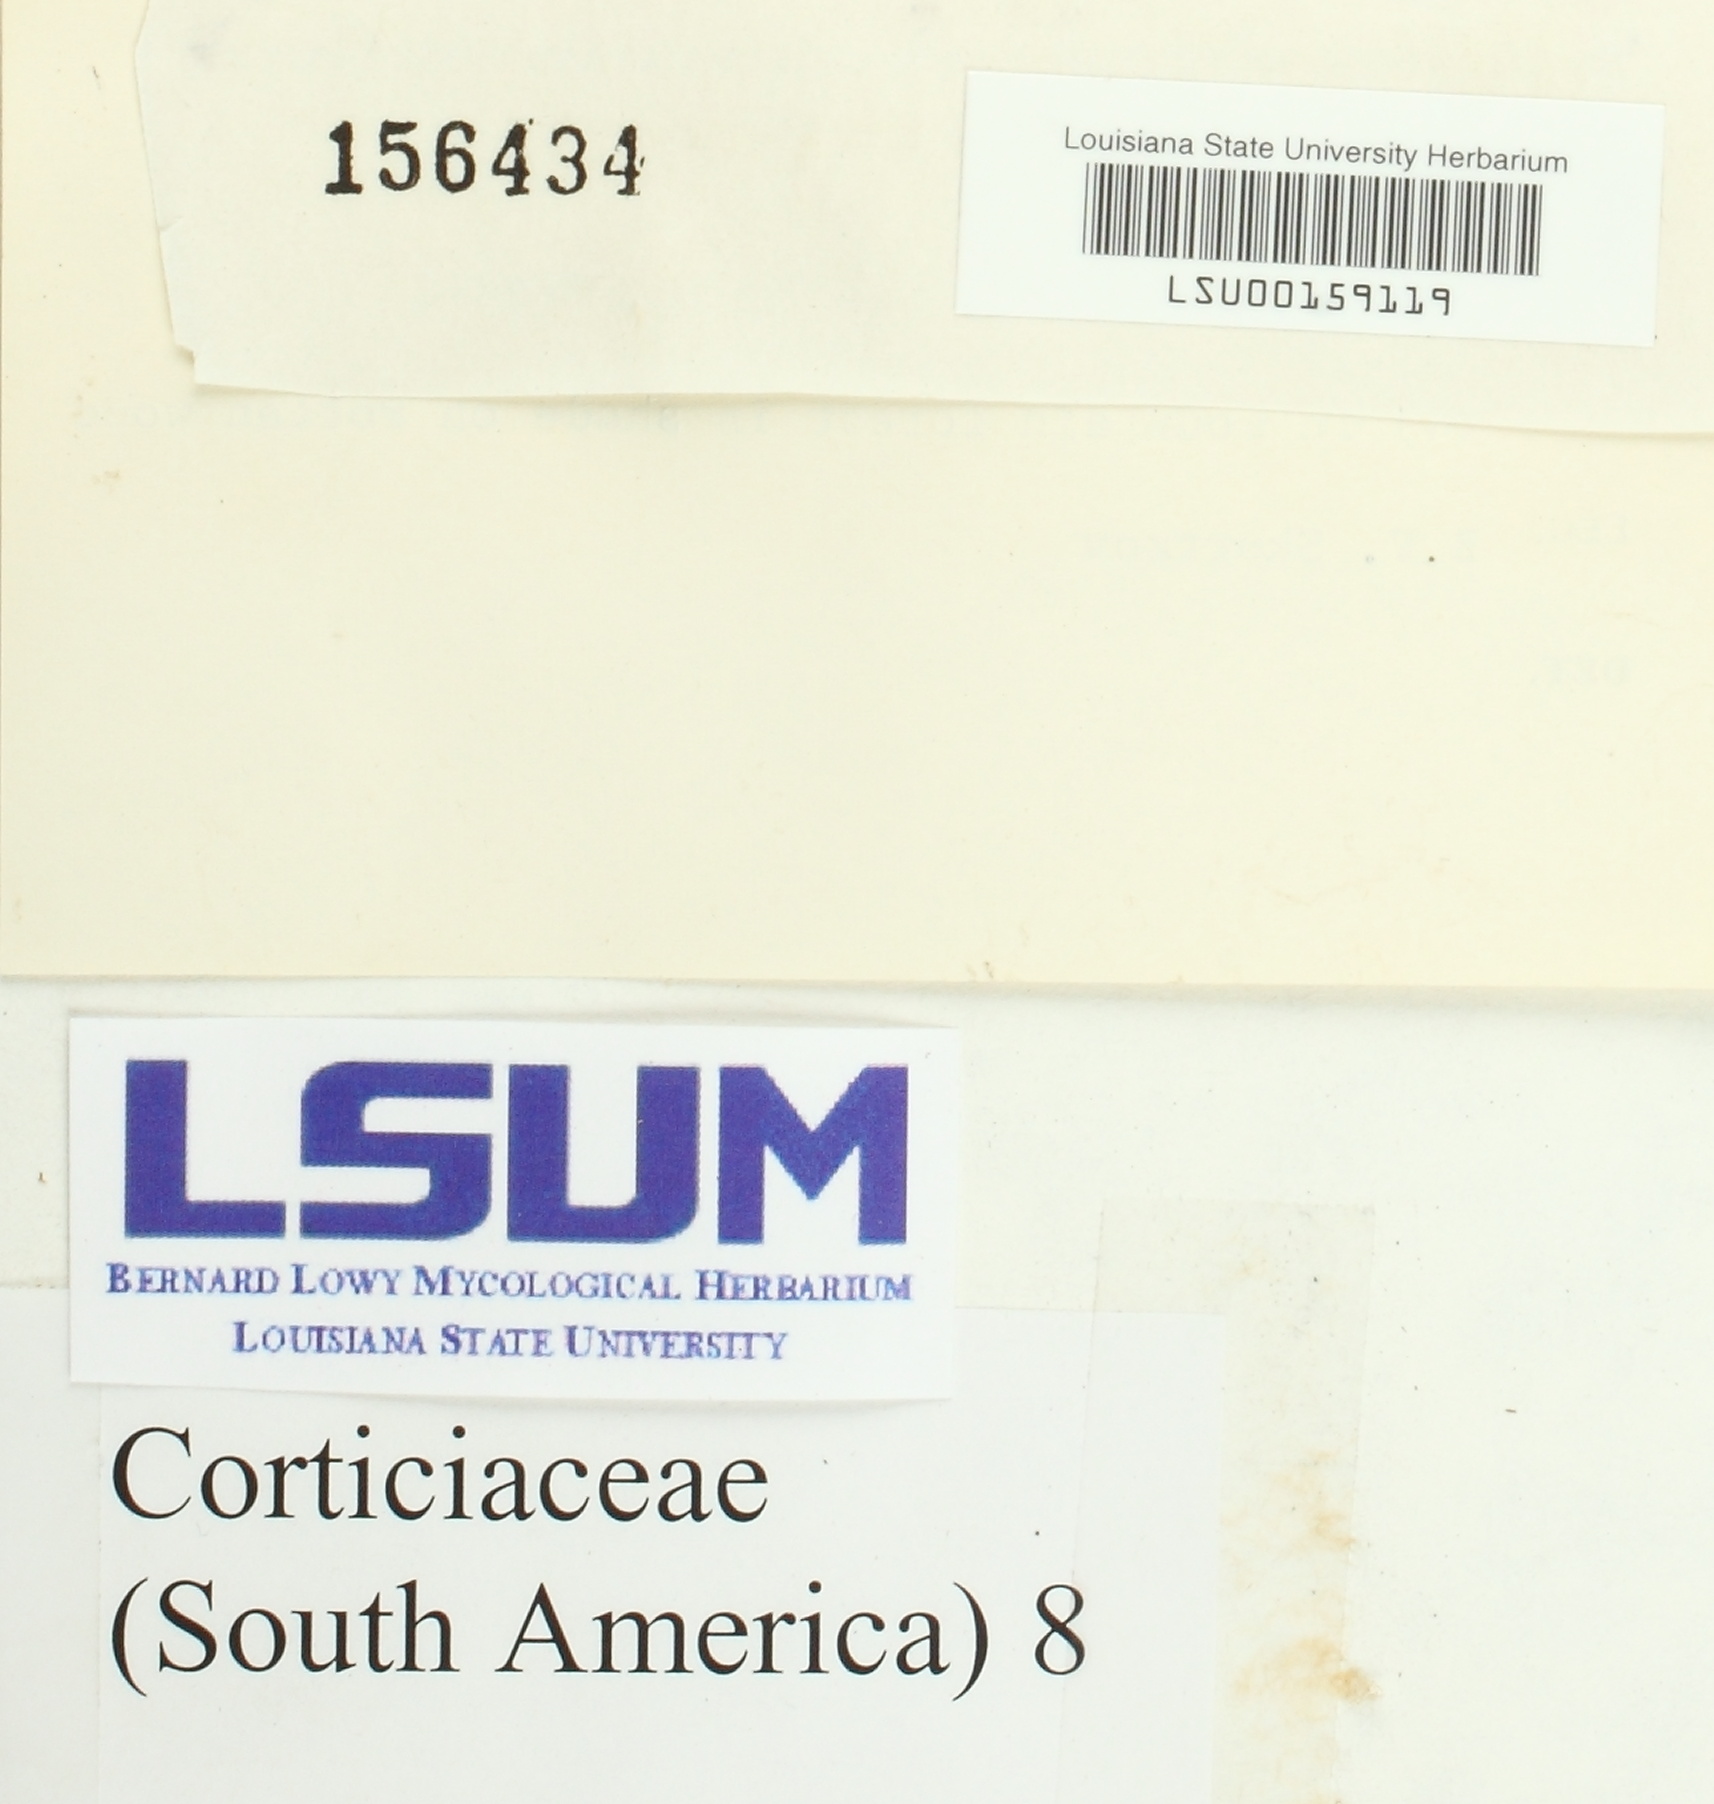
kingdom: Fungi
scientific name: Fungi
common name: Fungi
